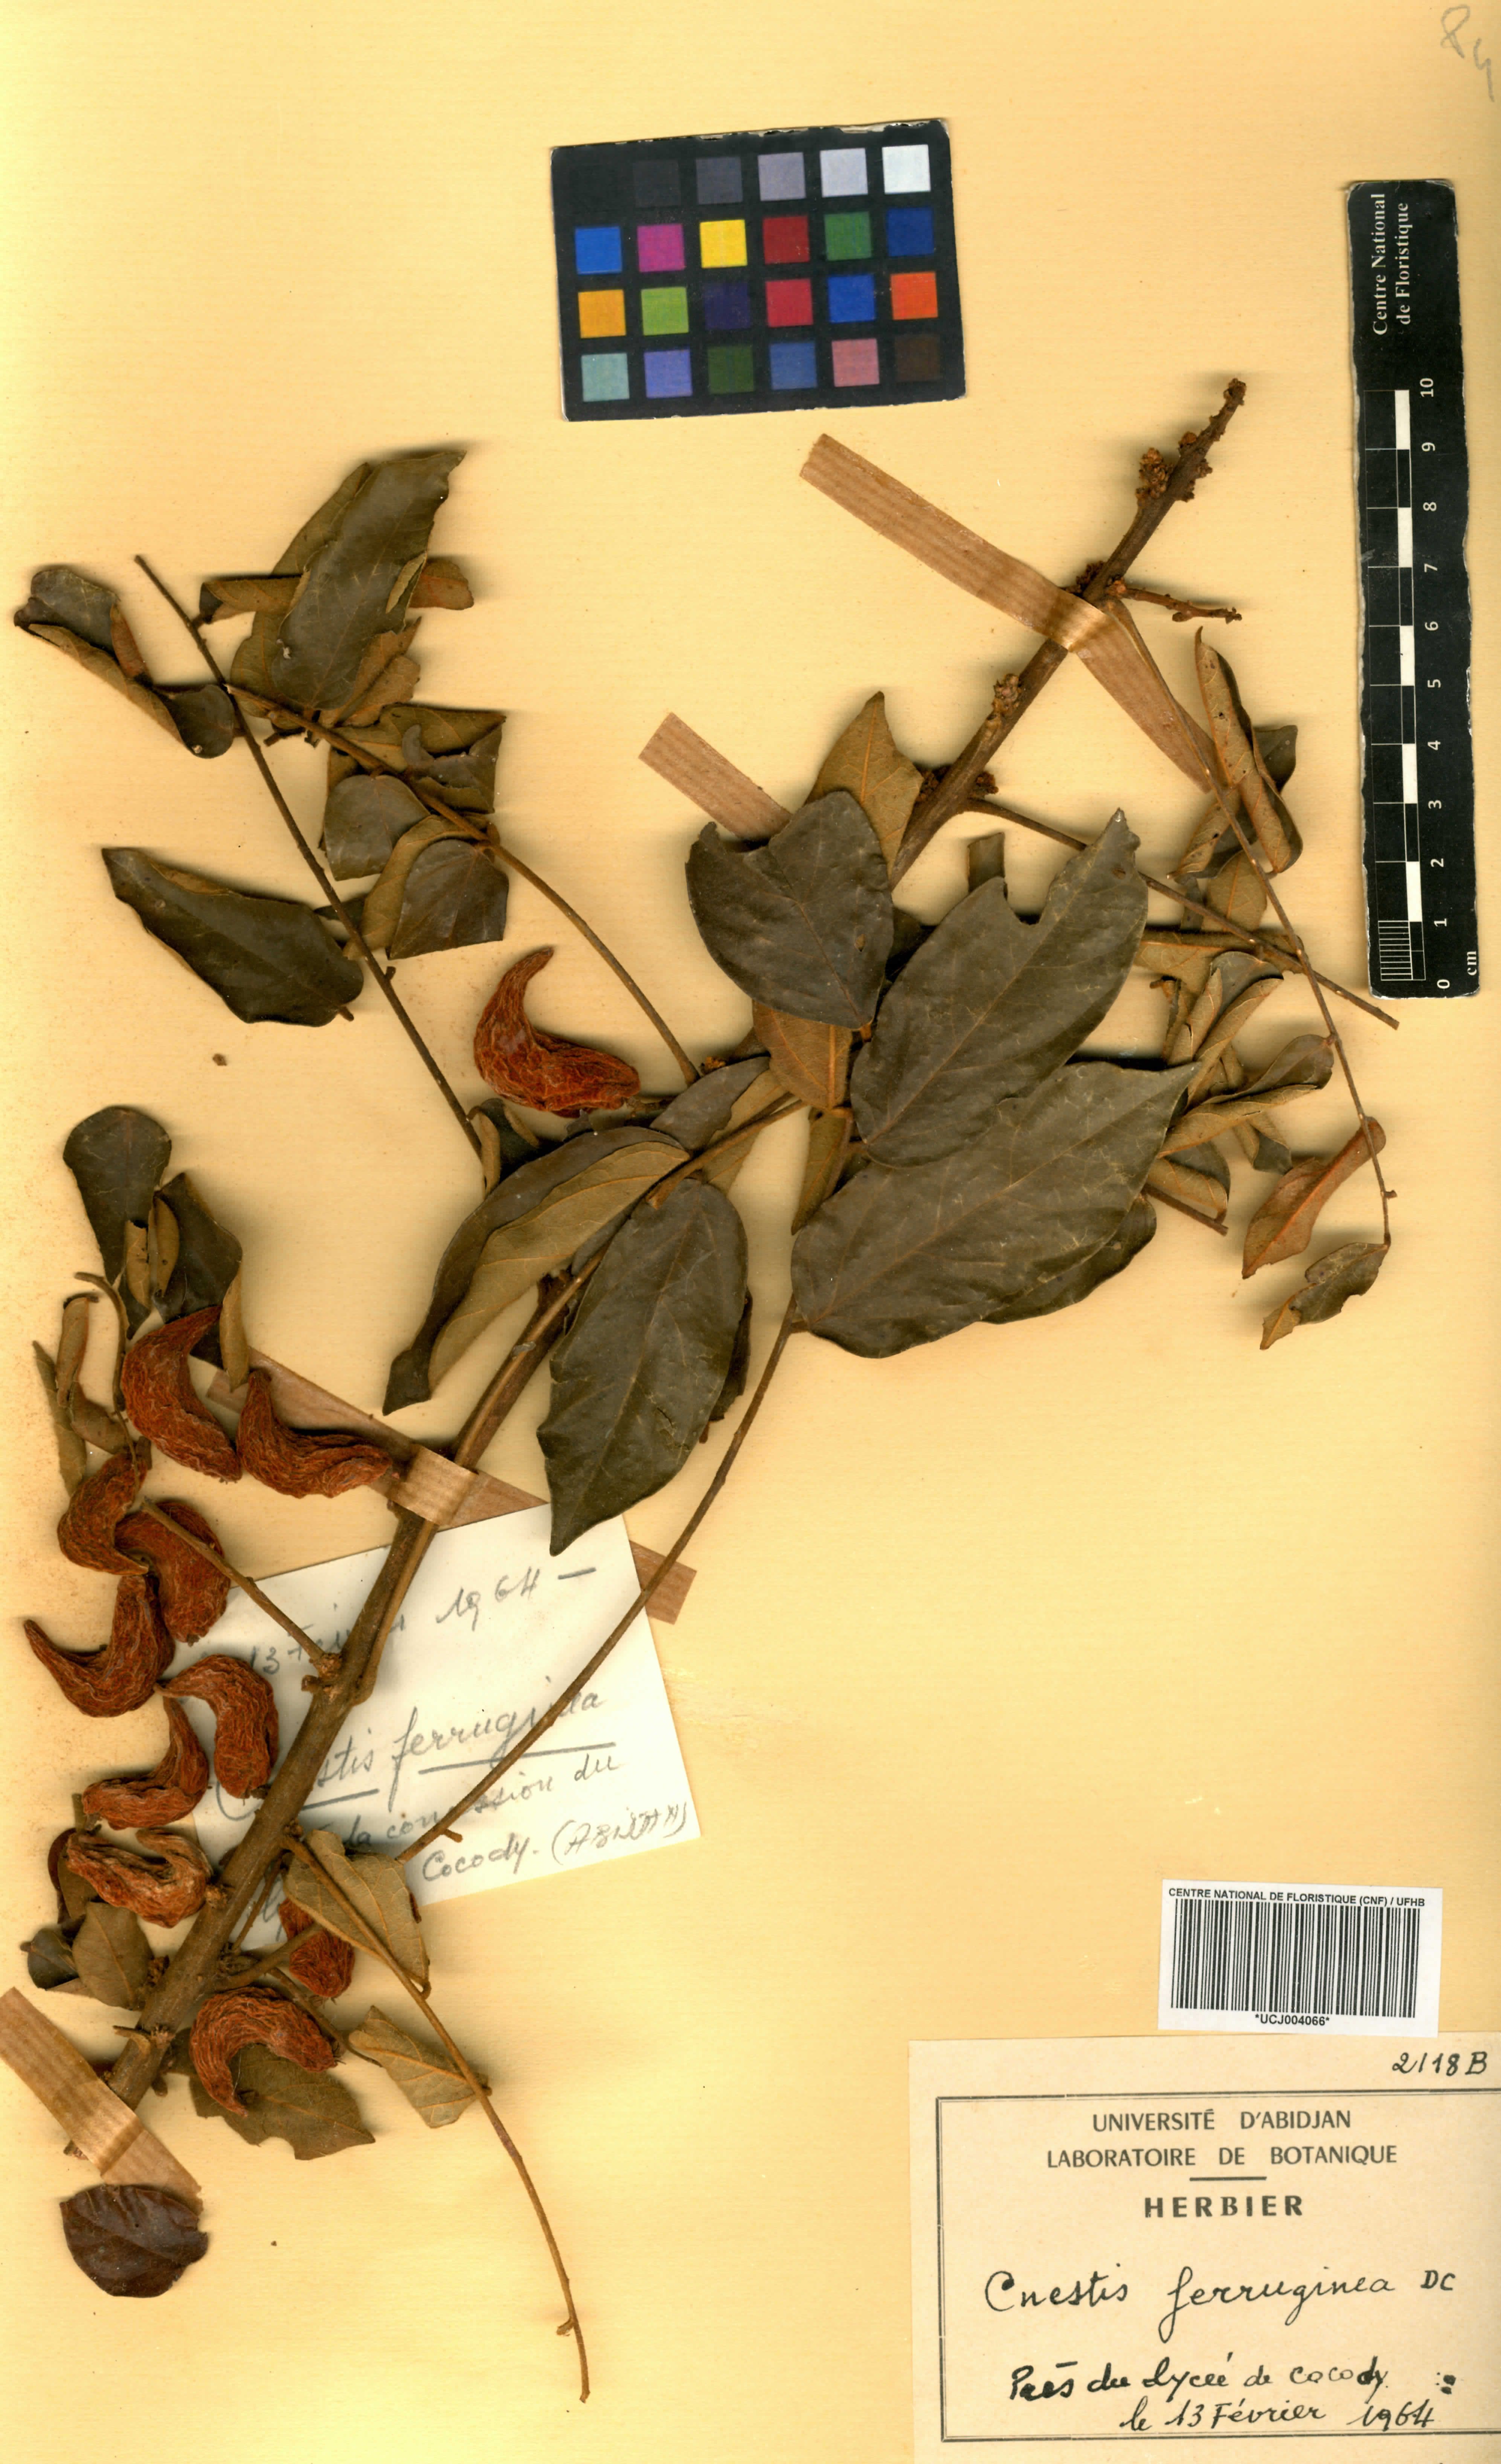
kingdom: Plantae
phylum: Tracheophyta
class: Magnoliopsida
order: Oxalidales
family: Connaraceae
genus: Cnestis
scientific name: Cnestis ferruginea
